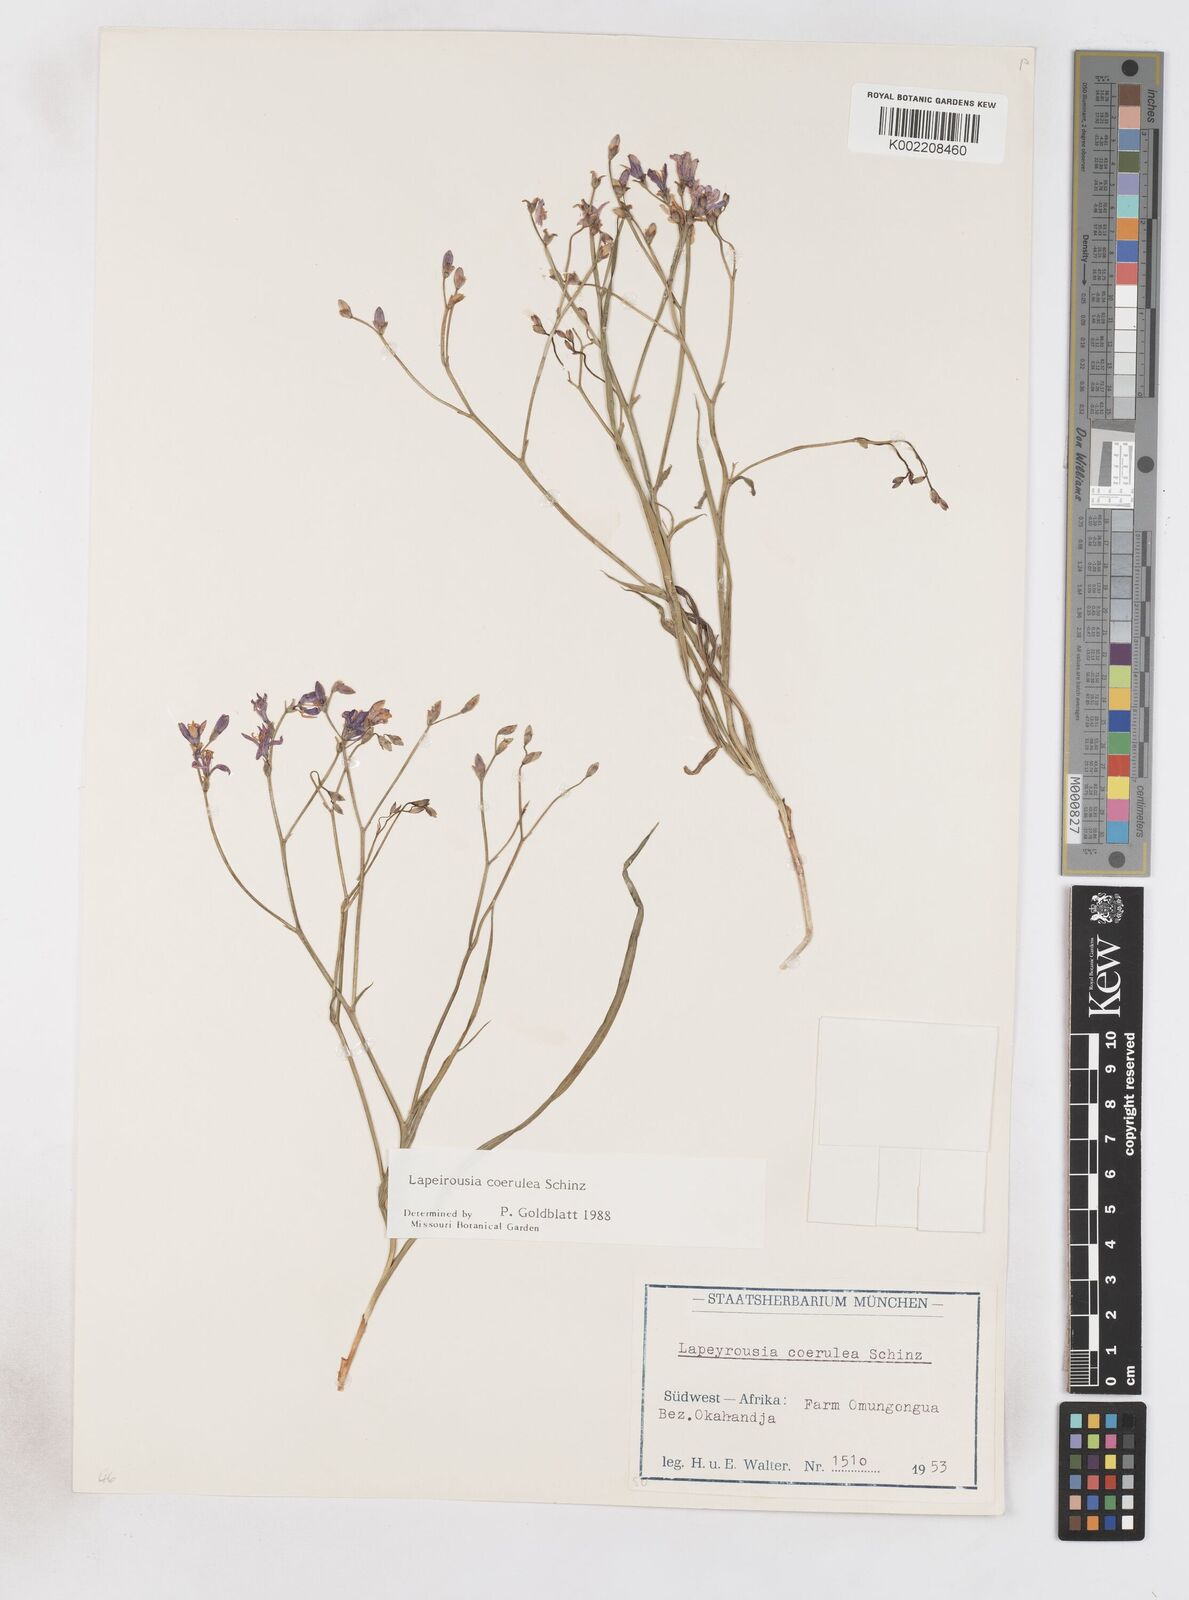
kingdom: Plantae
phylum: Tracheophyta
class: Liliopsida
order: Asparagales
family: Iridaceae
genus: Afrosolen
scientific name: Afrosolen coeruleus
